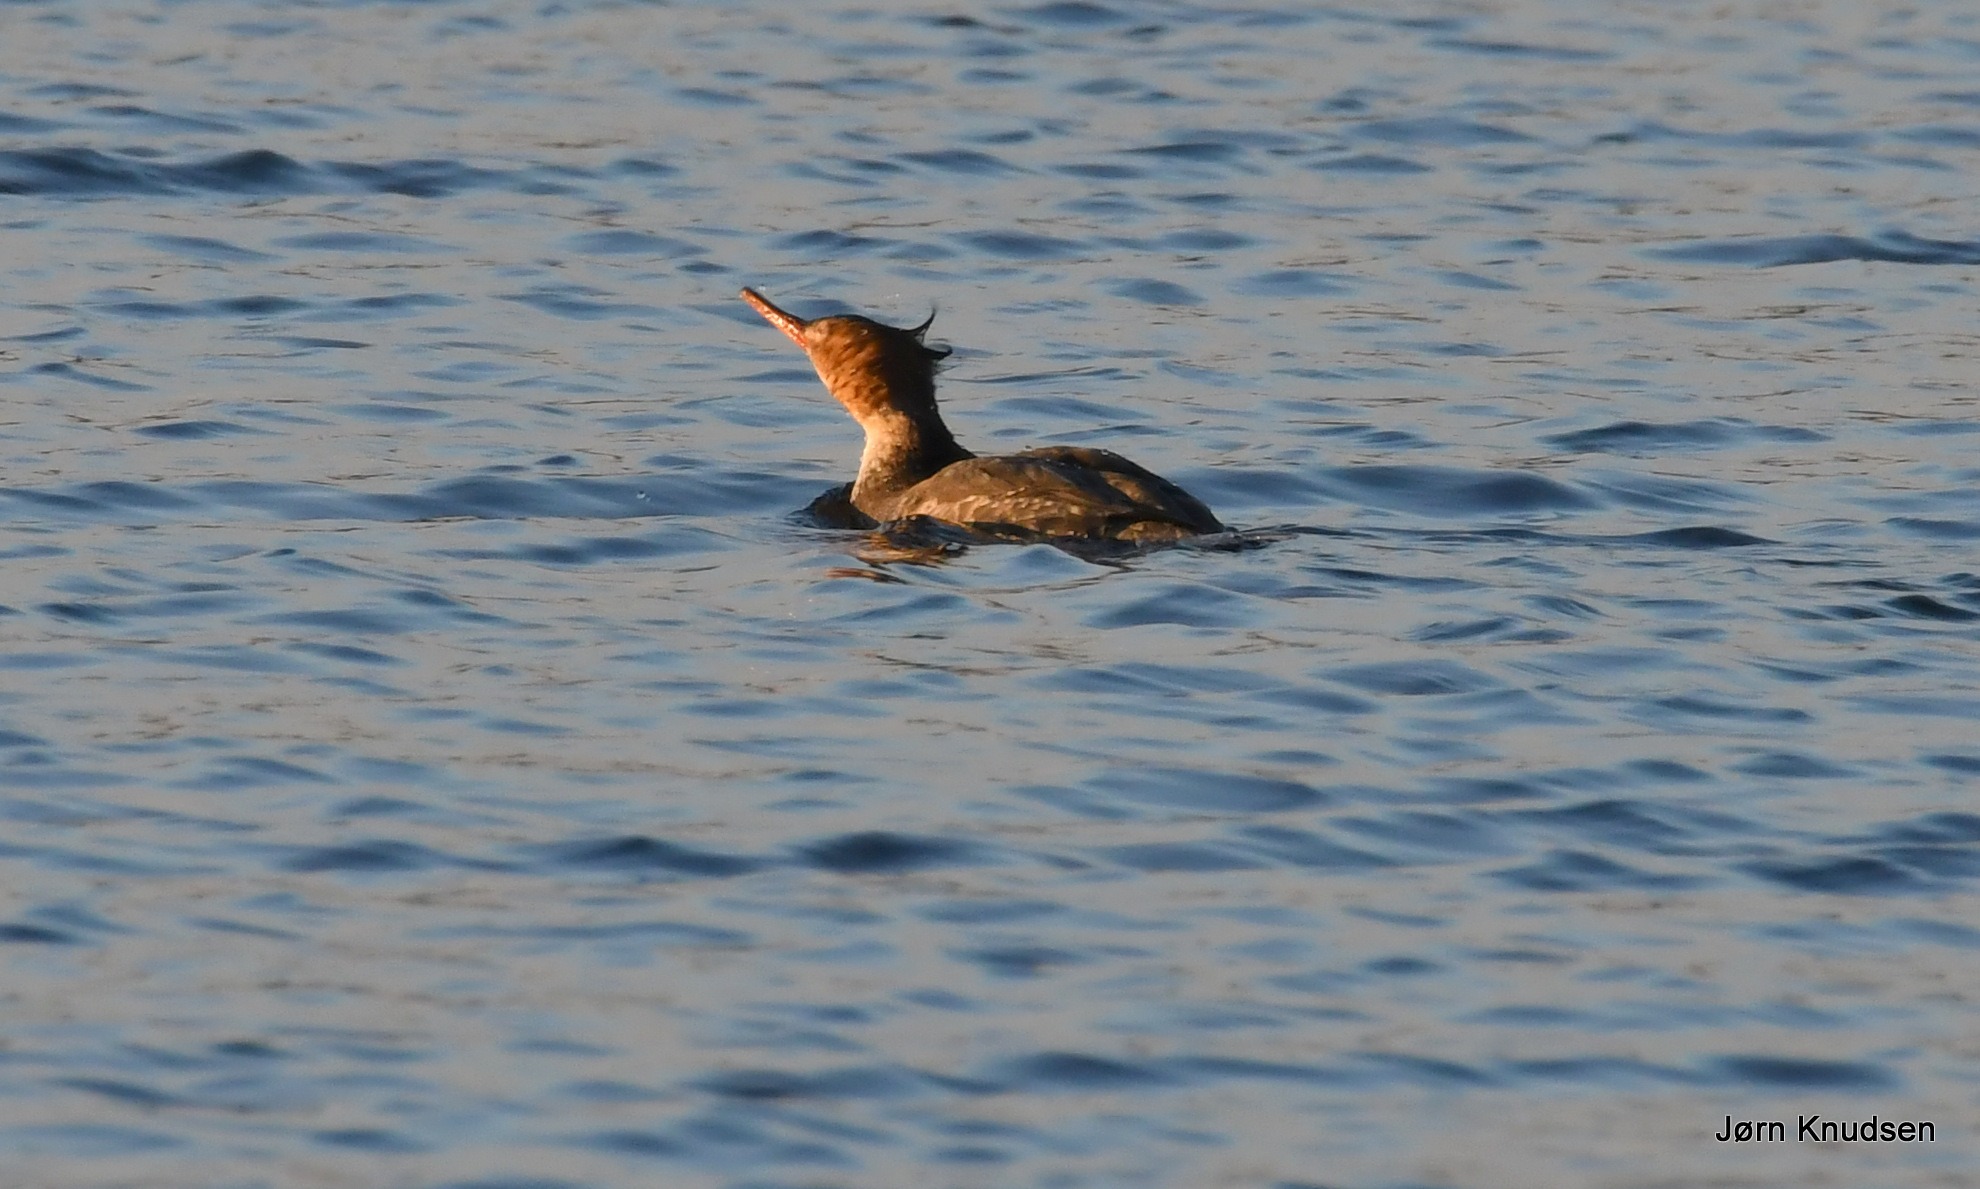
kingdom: Animalia
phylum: Chordata
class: Aves
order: Anseriformes
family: Anatidae
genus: Mergus
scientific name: Mergus serrator
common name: Toppet skallesluger
